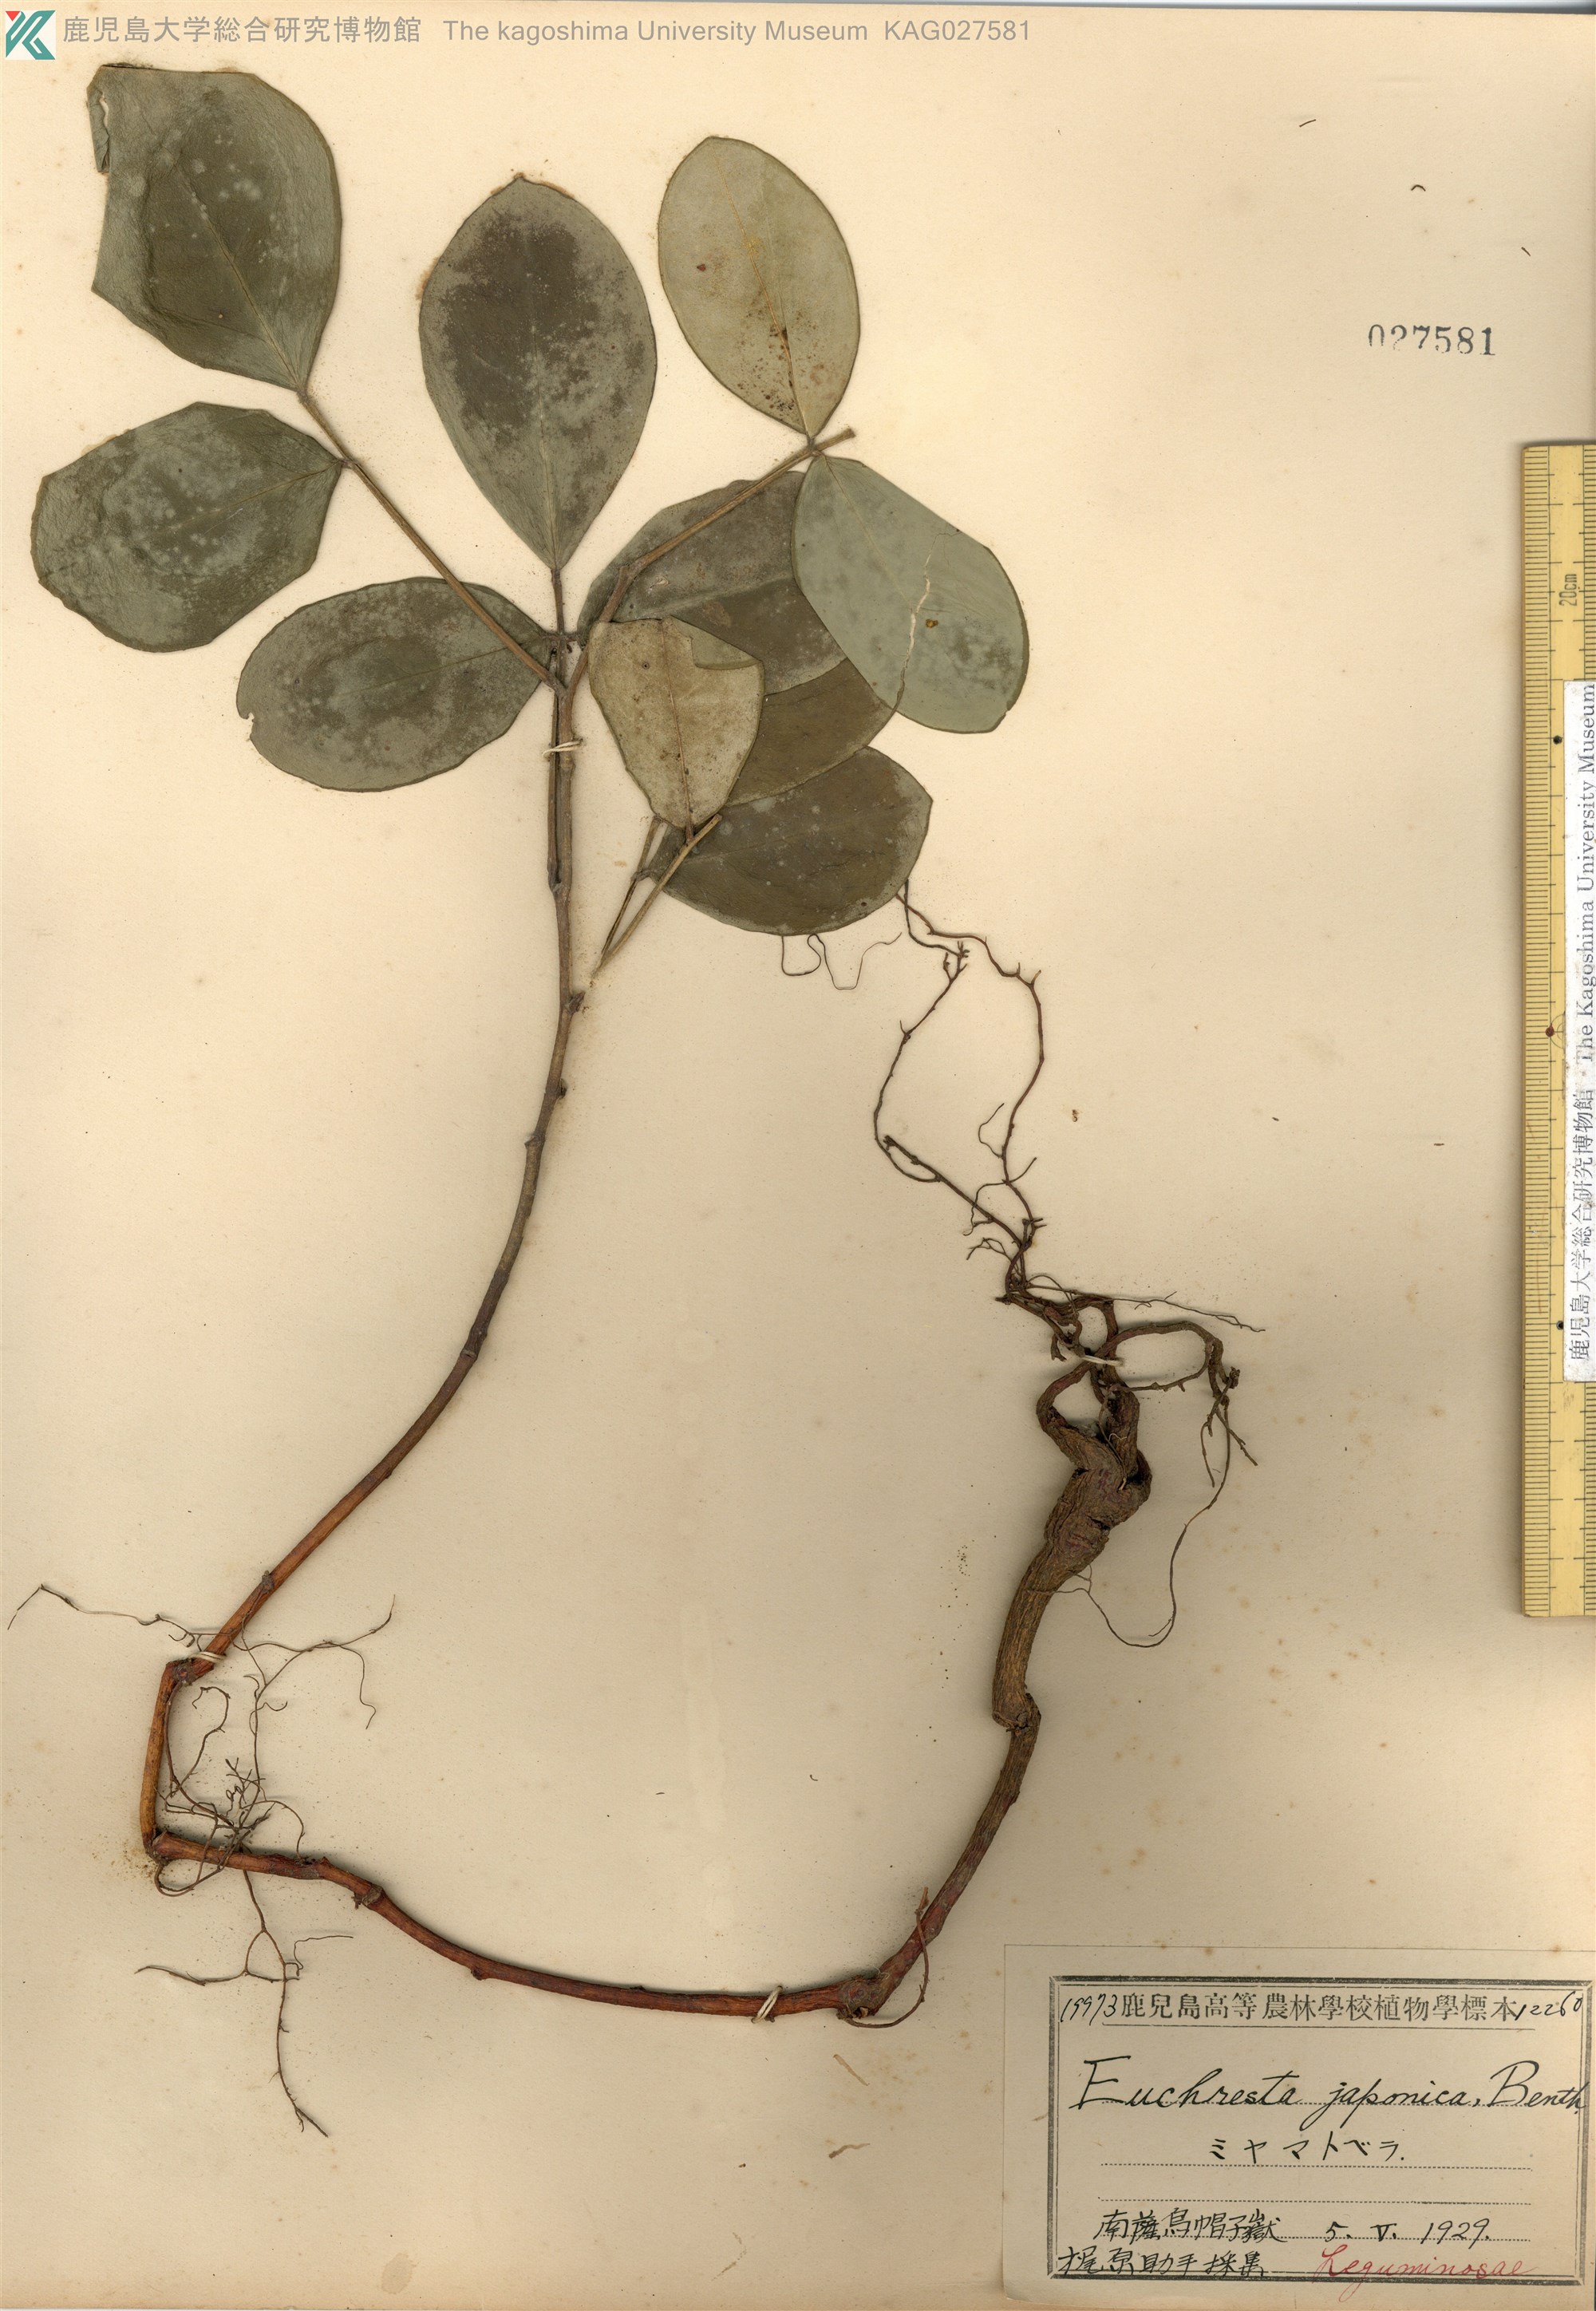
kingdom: Plantae
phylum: Tracheophyta
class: Magnoliopsida
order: Fabales
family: Fabaceae
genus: Euchresta
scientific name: Euchresta japonica
